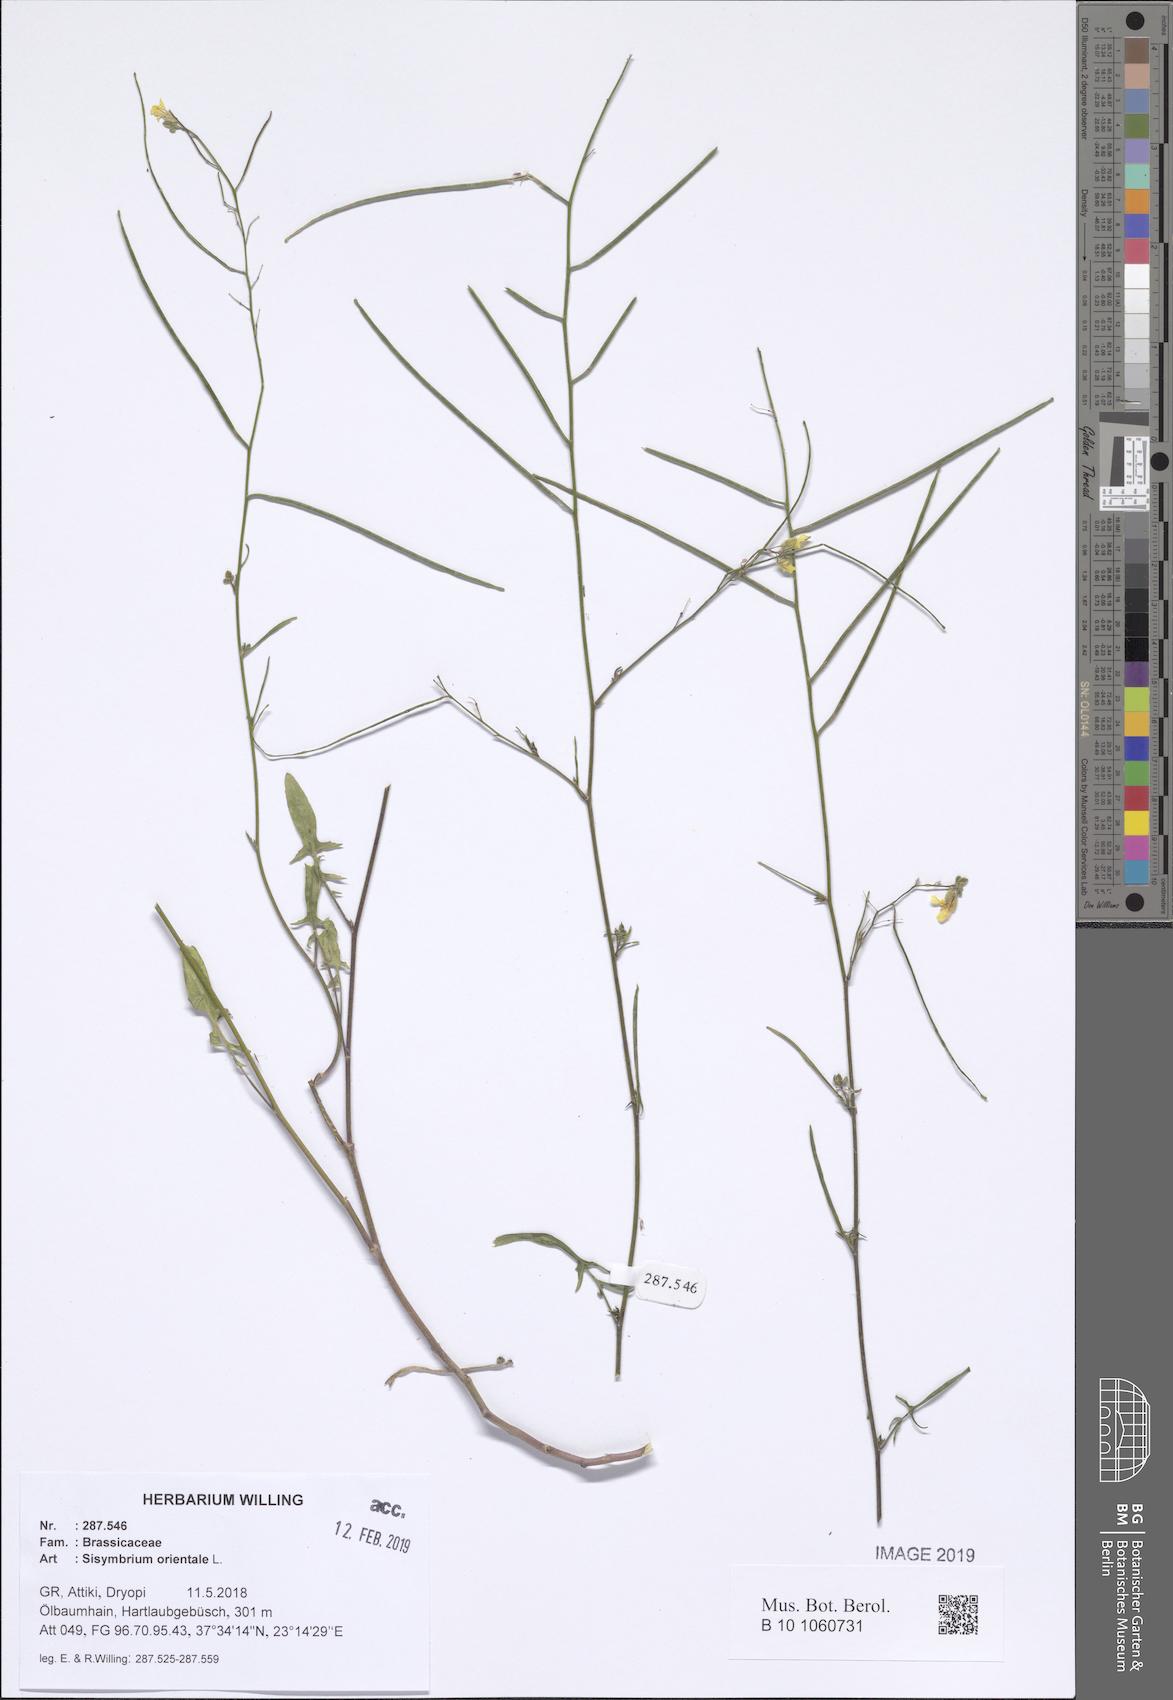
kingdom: Plantae
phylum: Tracheophyta
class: Magnoliopsida
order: Brassicales
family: Brassicaceae
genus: Sisymbrium
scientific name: Sisymbrium orientale
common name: Eastern rocket
